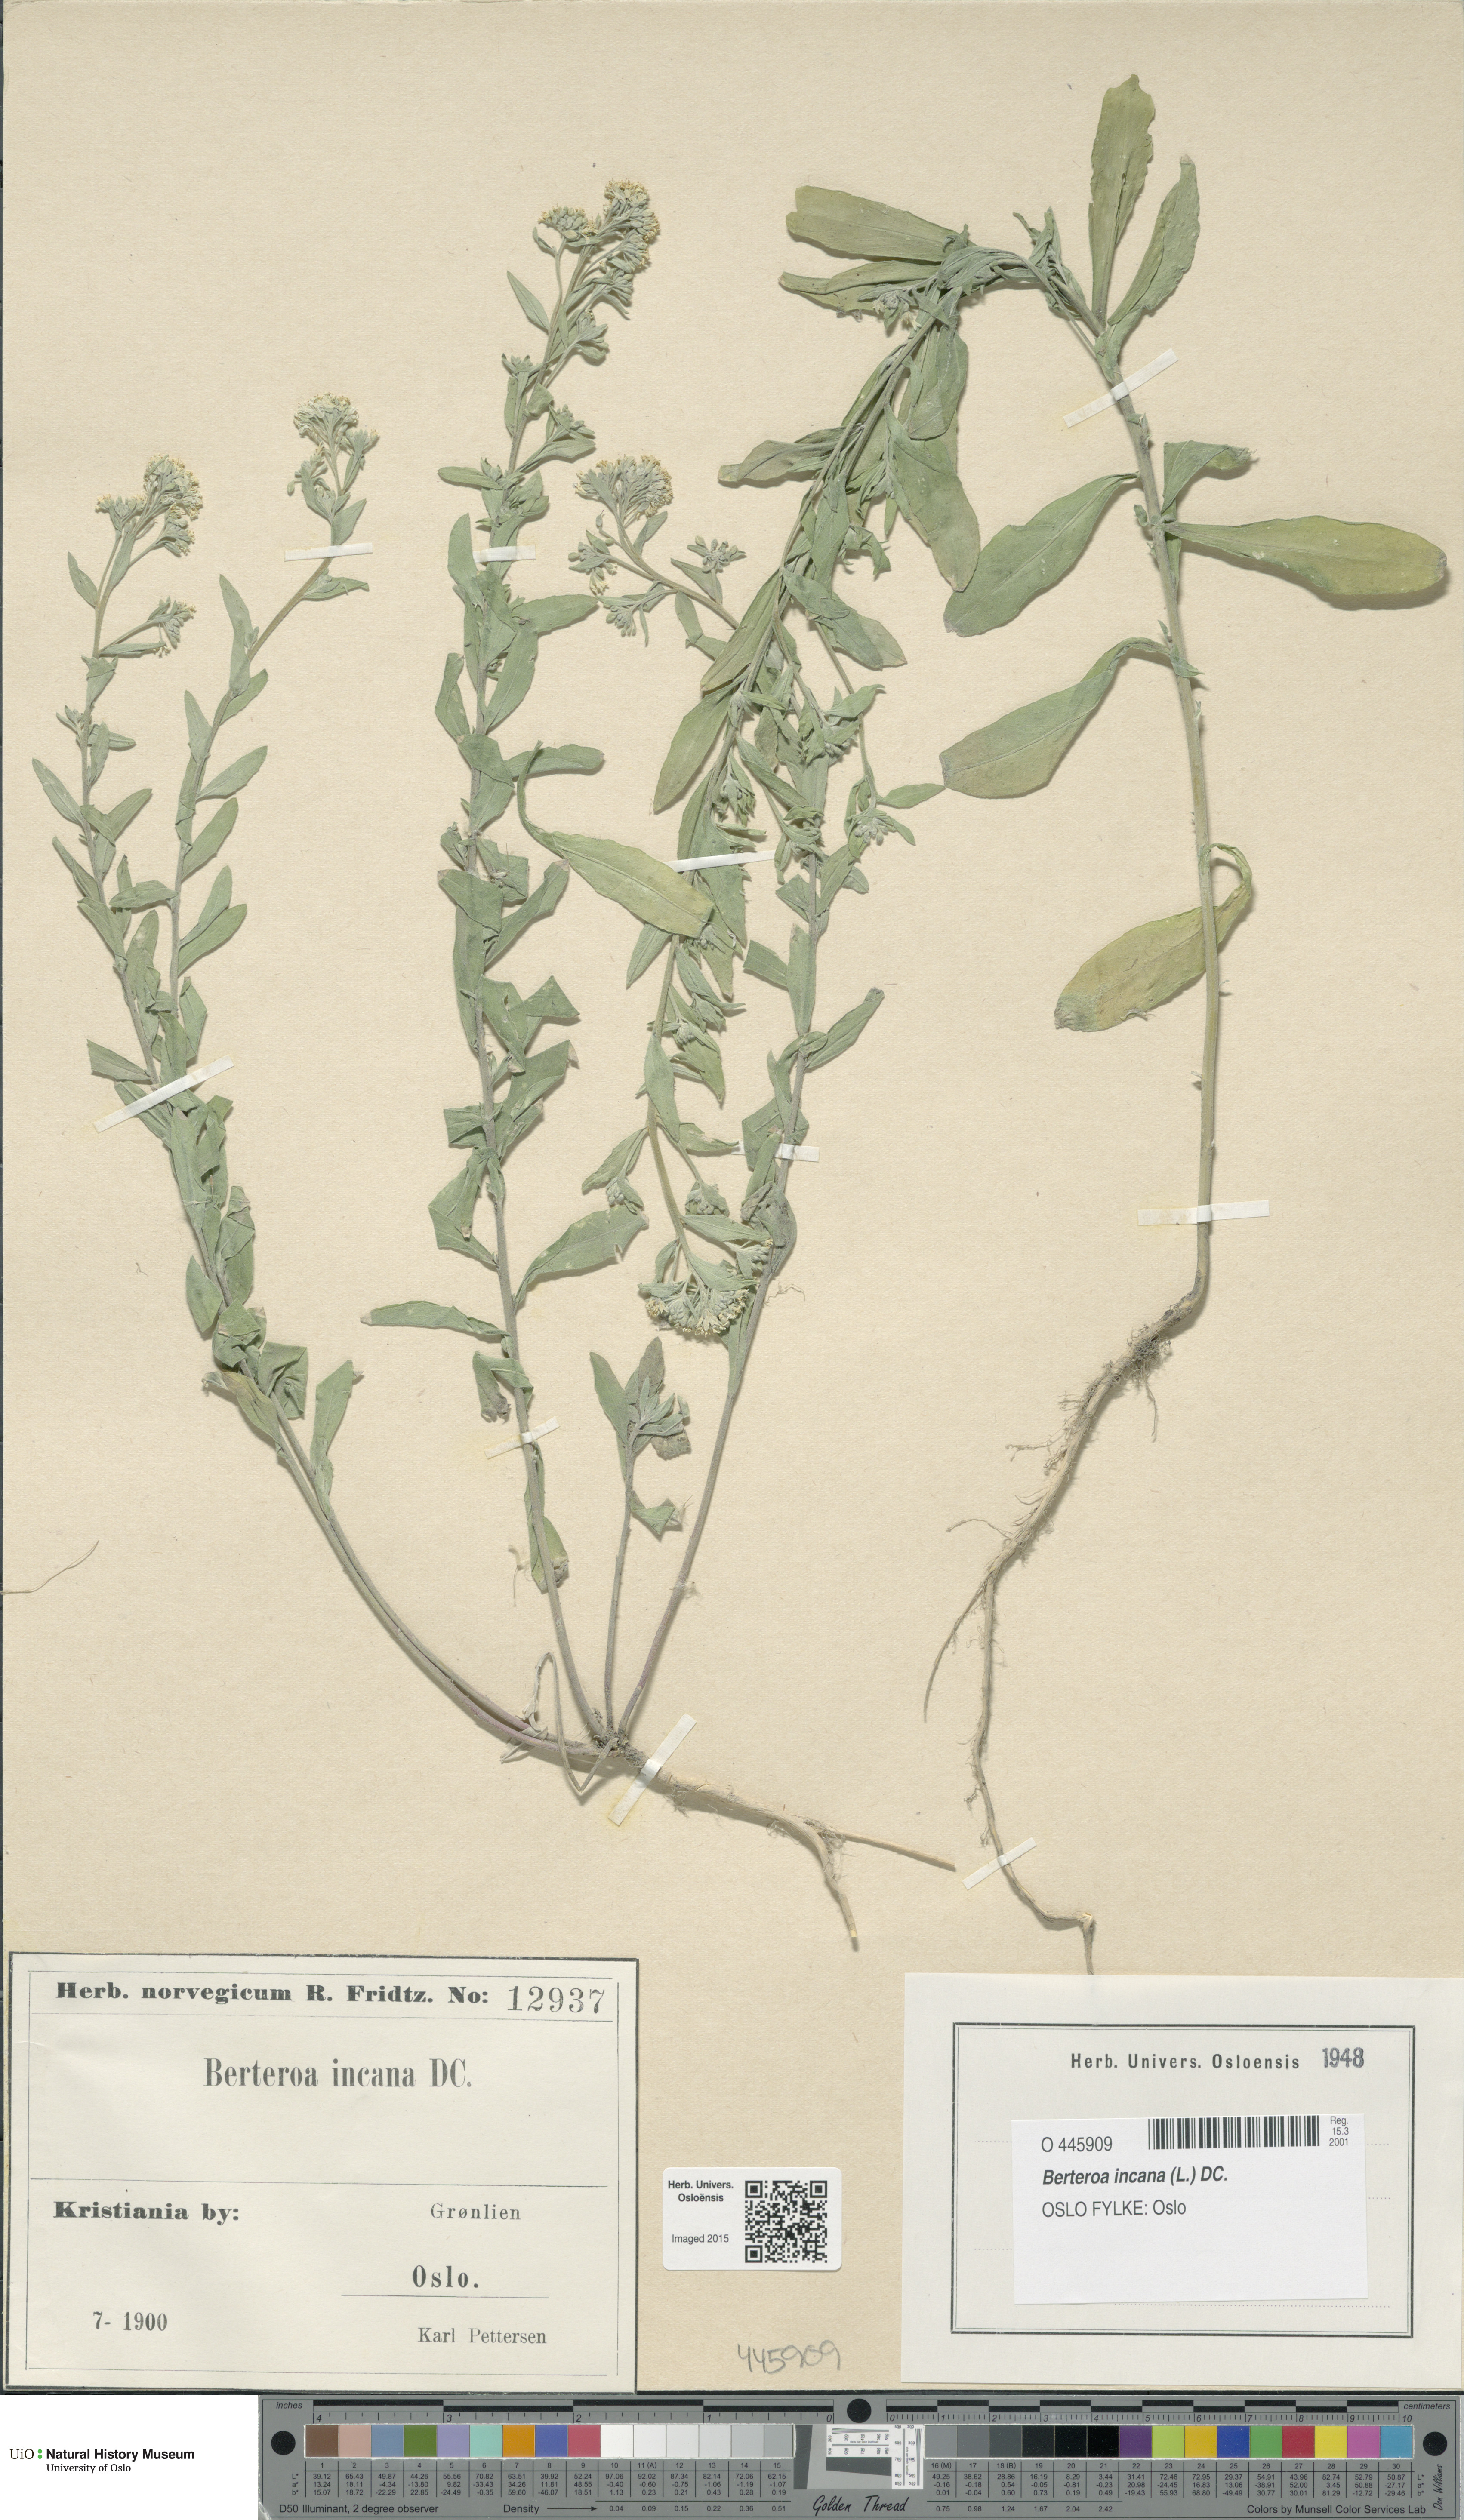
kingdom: Plantae
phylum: Tracheophyta
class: Magnoliopsida
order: Brassicales
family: Brassicaceae
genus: Berteroa
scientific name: Berteroa incana
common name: Hoary alison
